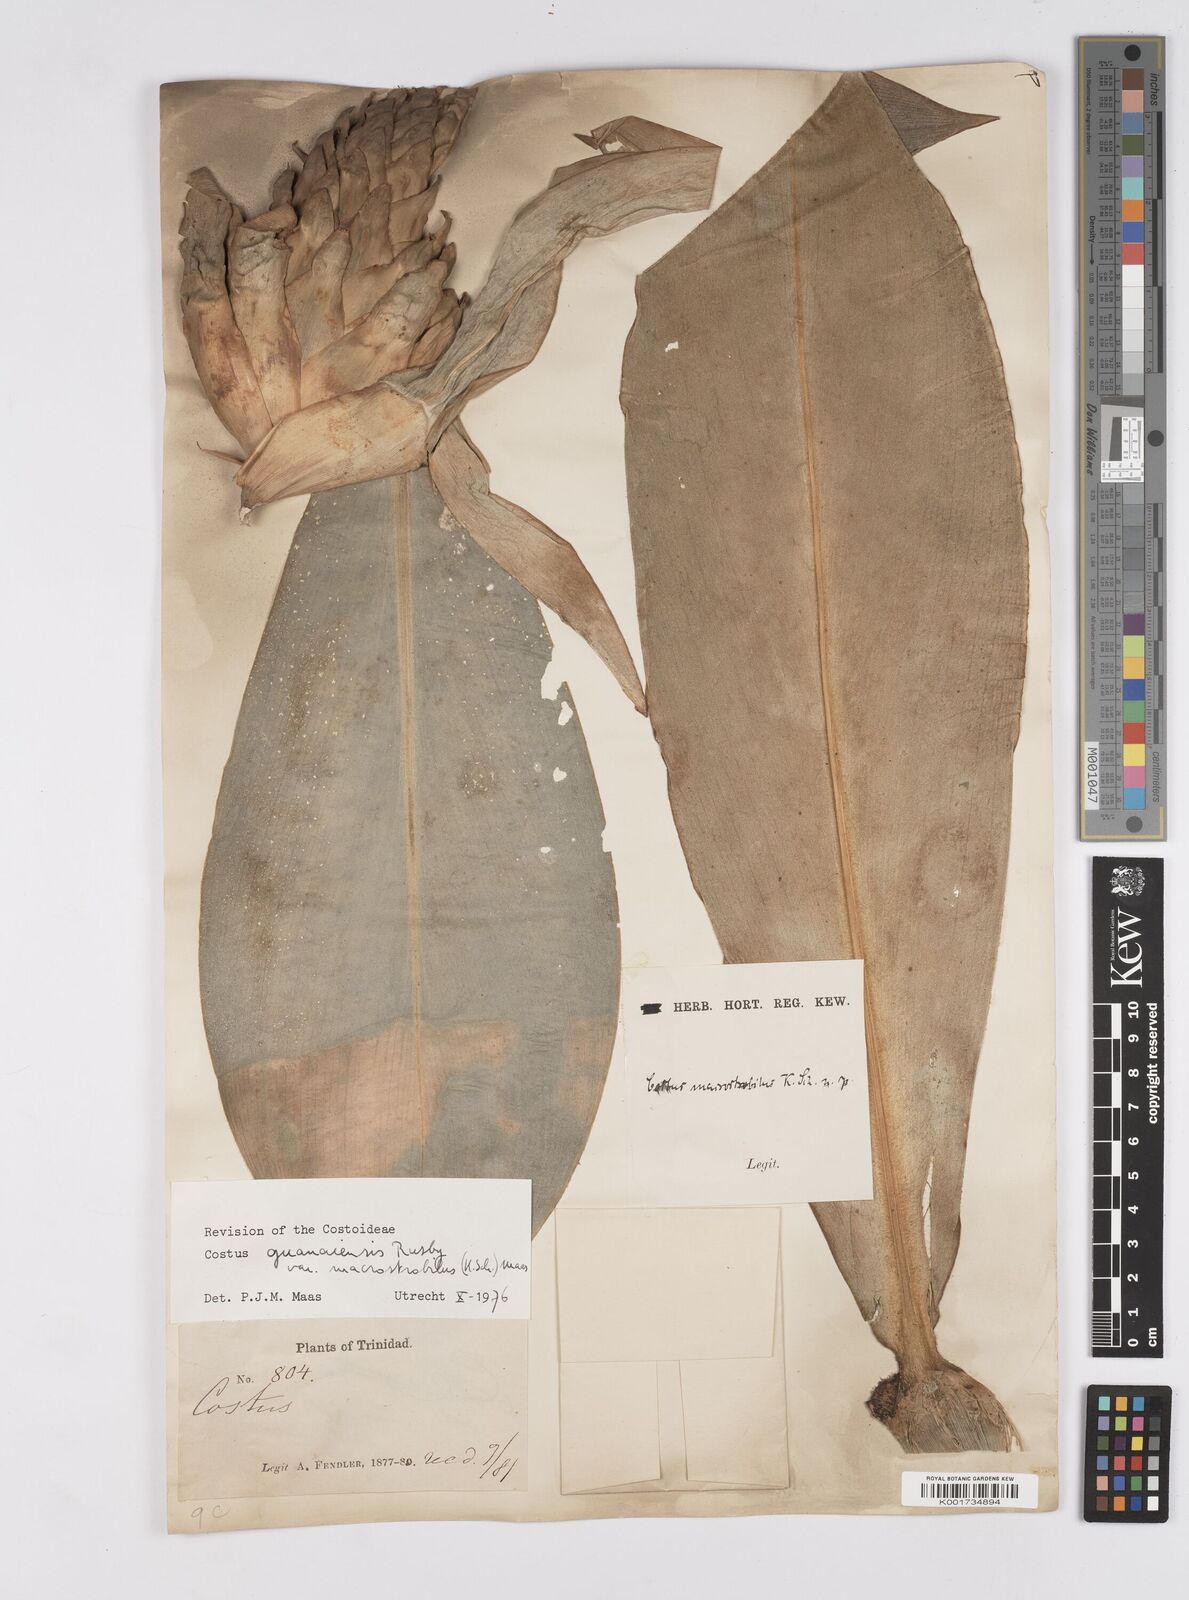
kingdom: Plantae
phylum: Tracheophyta
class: Liliopsida
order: Zingiberales
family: Costaceae
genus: Costus
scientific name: Costus guanaiensis
